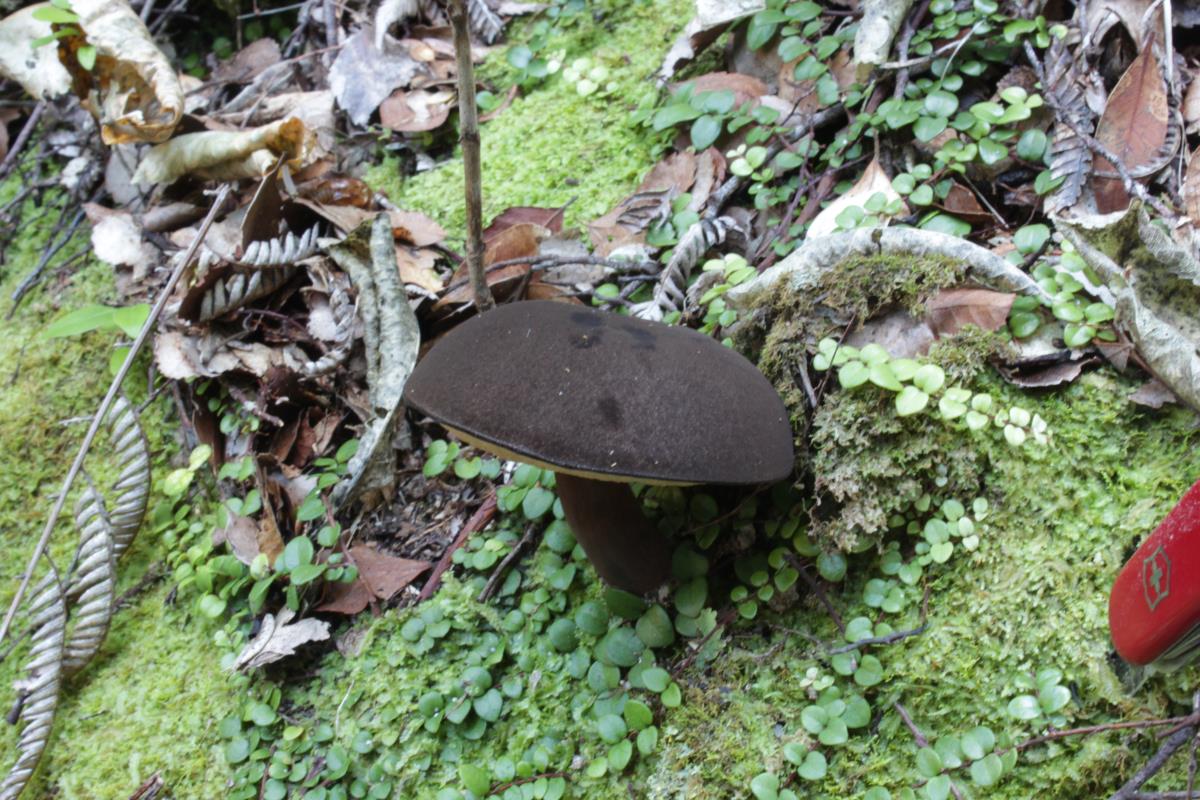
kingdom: Fungi
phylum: Basidiomycota
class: Agaricomycetes
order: Boletales
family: Boletaceae
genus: Porphyrellus
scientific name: Porphyrellus formosus
